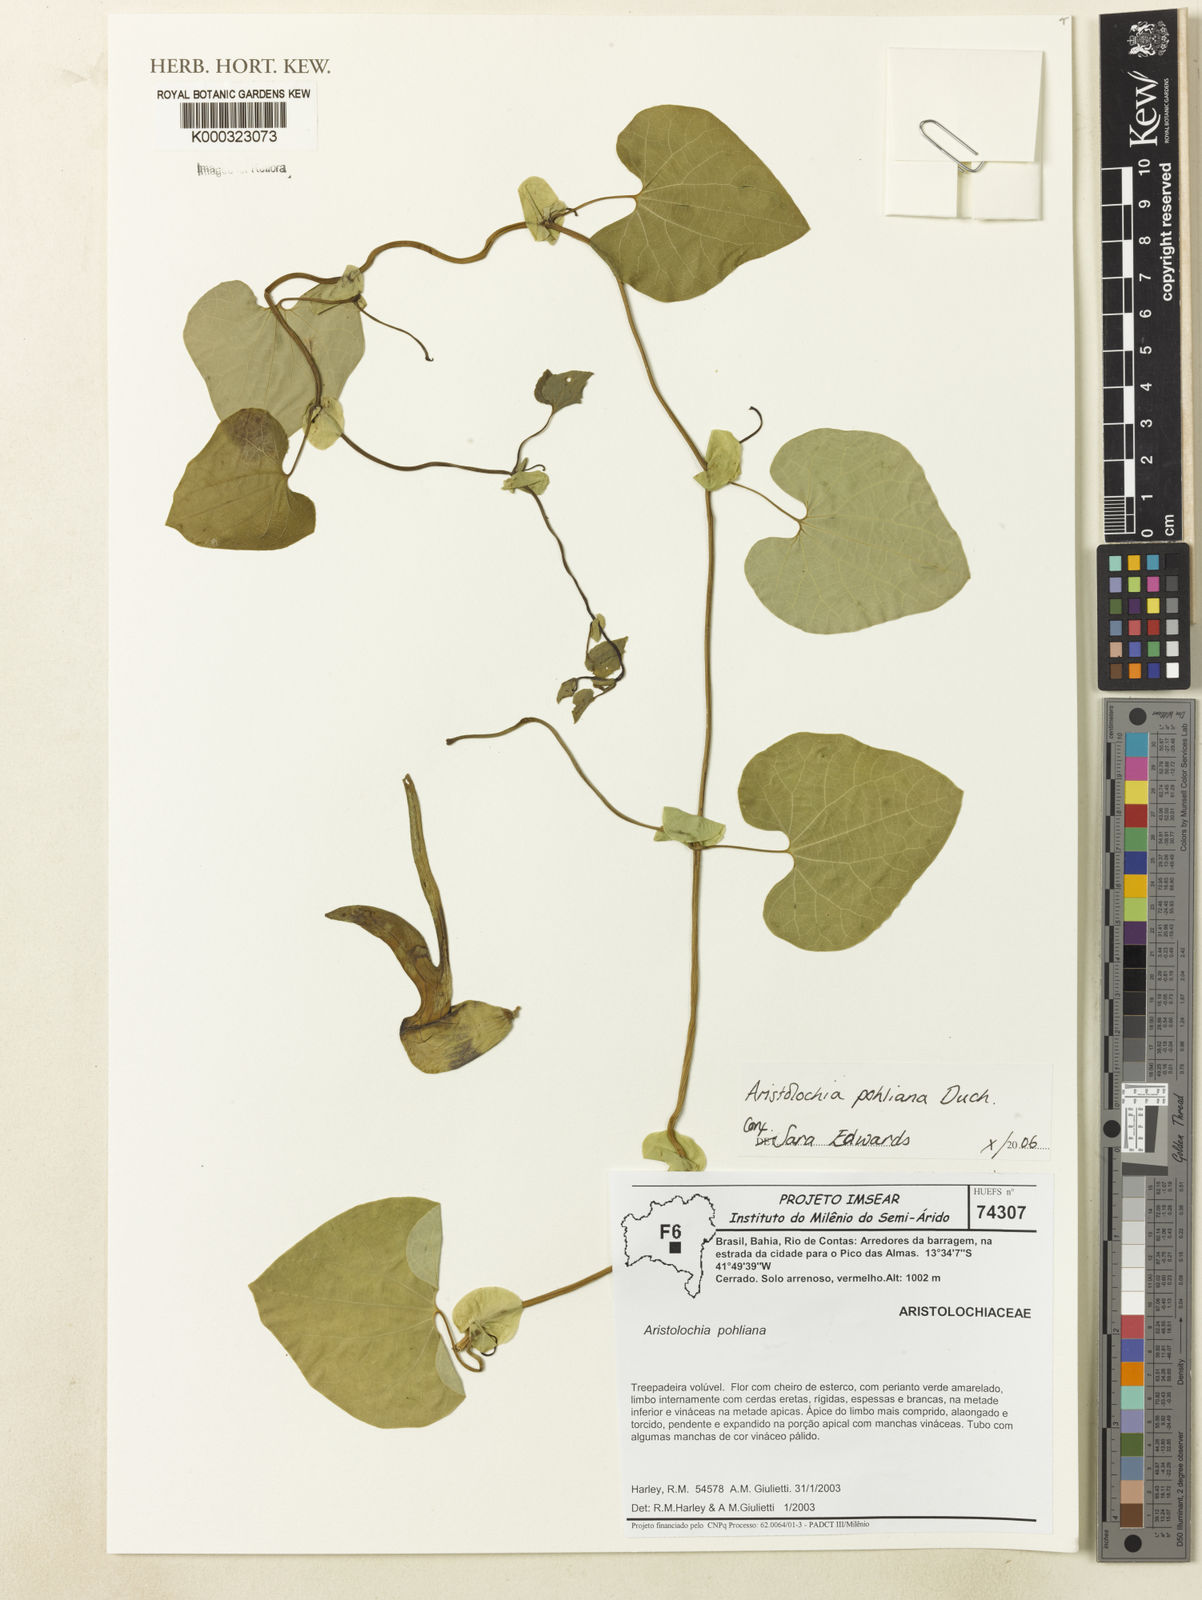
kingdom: Plantae
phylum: Tracheophyta
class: Magnoliopsida
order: Piperales
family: Aristolochiaceae
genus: Aristolochia
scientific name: Aristolochia pohliana
